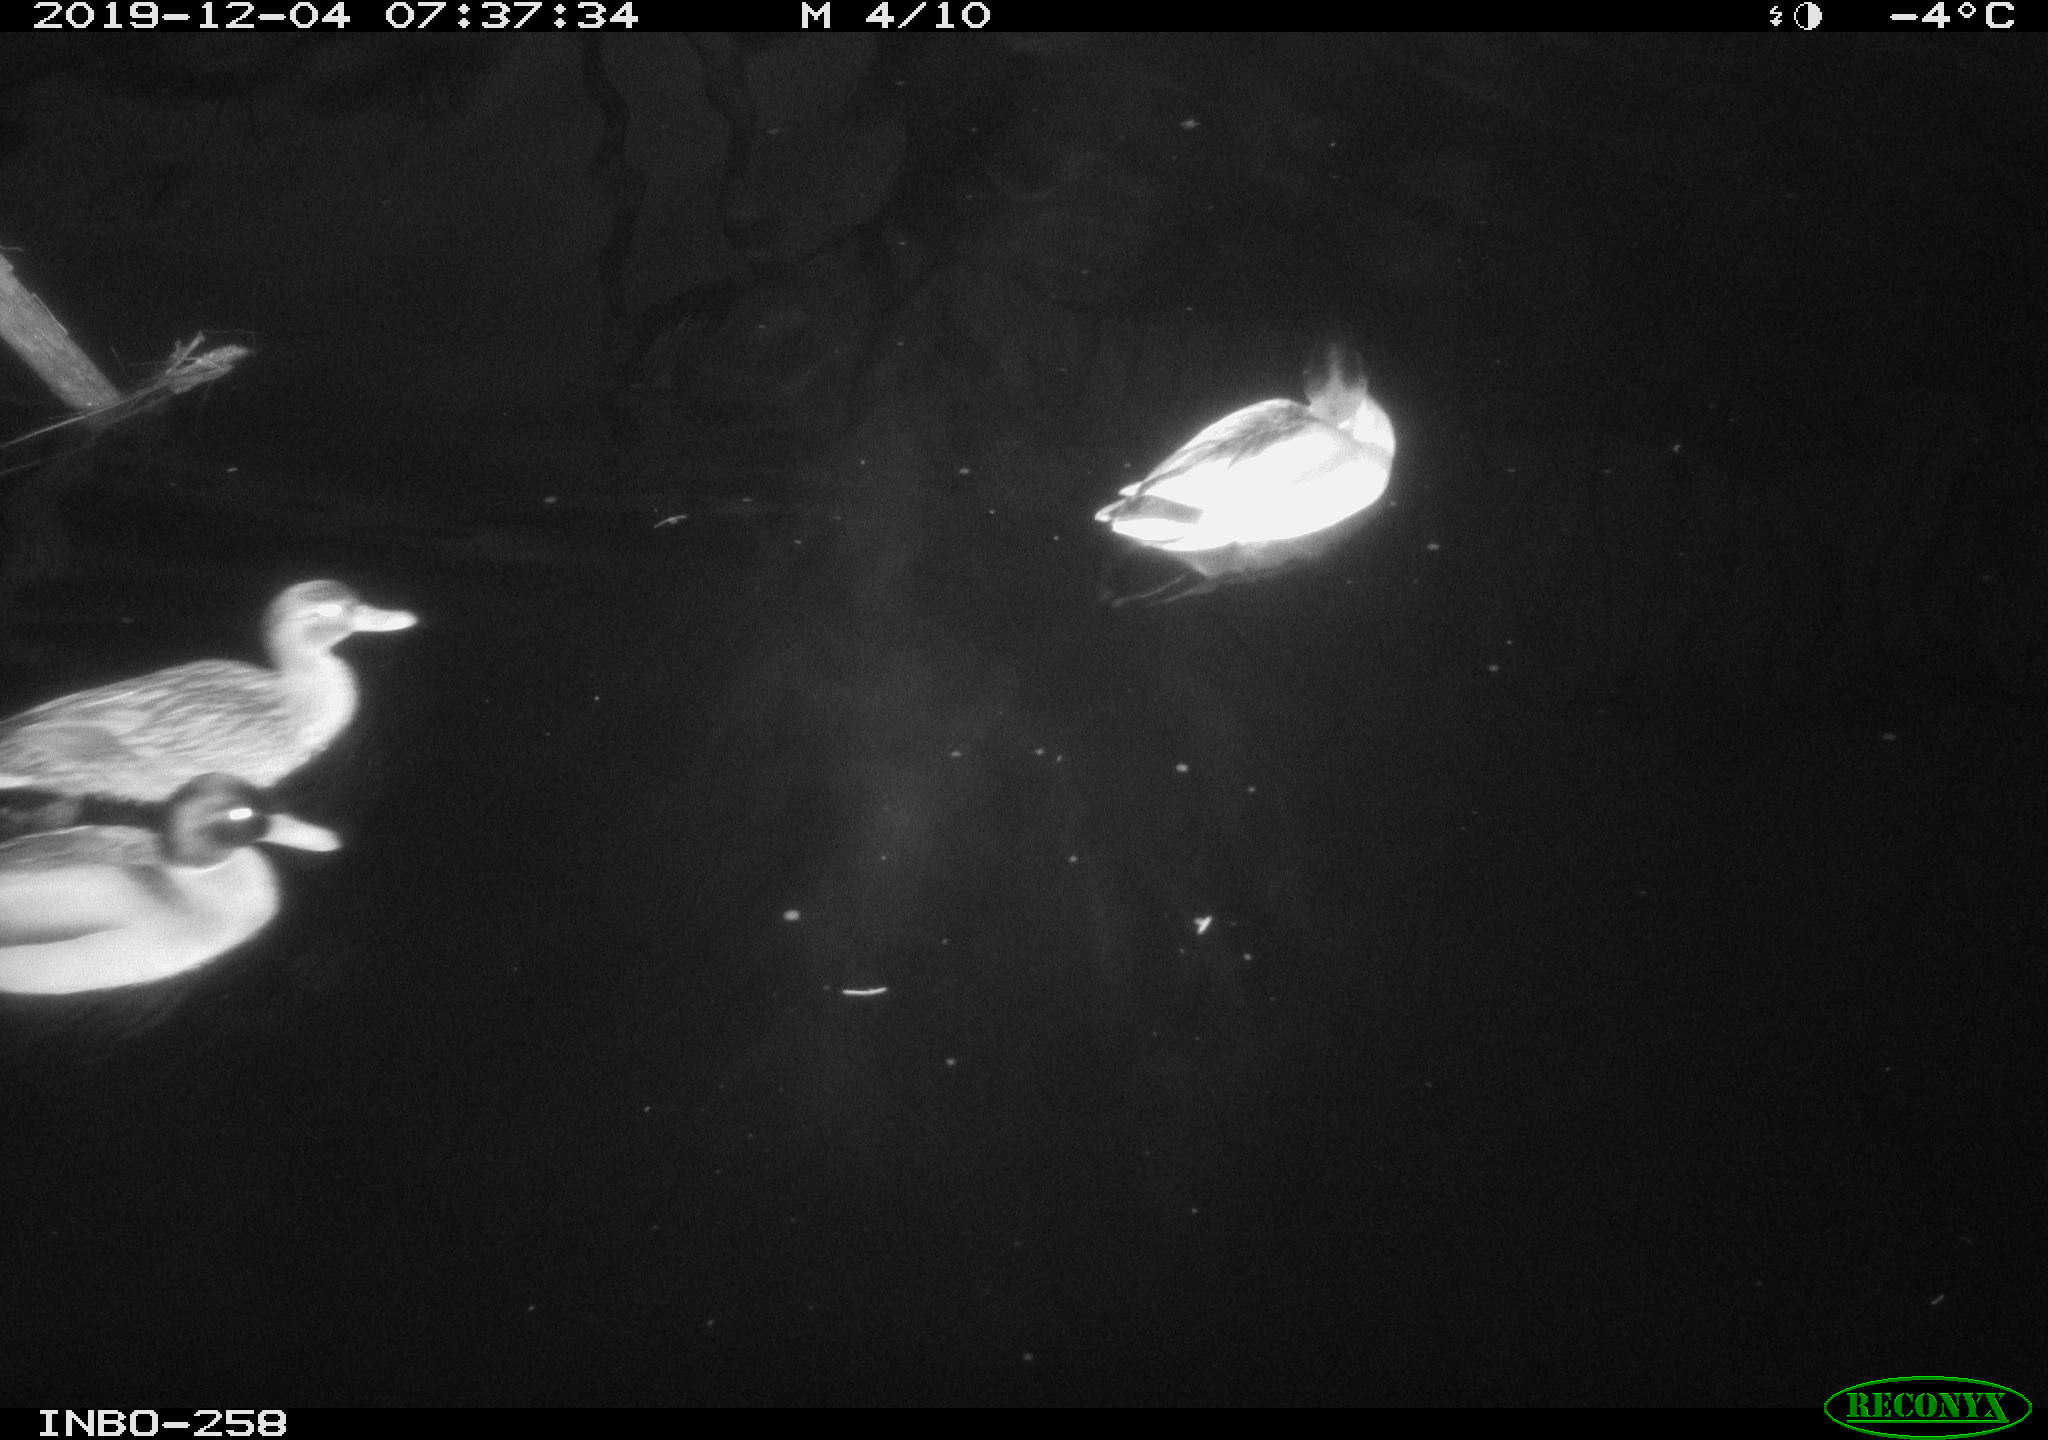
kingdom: Animalia
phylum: Chordata
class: Aves
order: Gruiformes
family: Rallidae
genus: Gallinula
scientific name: Gallinula chloropus
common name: Common moorhen
